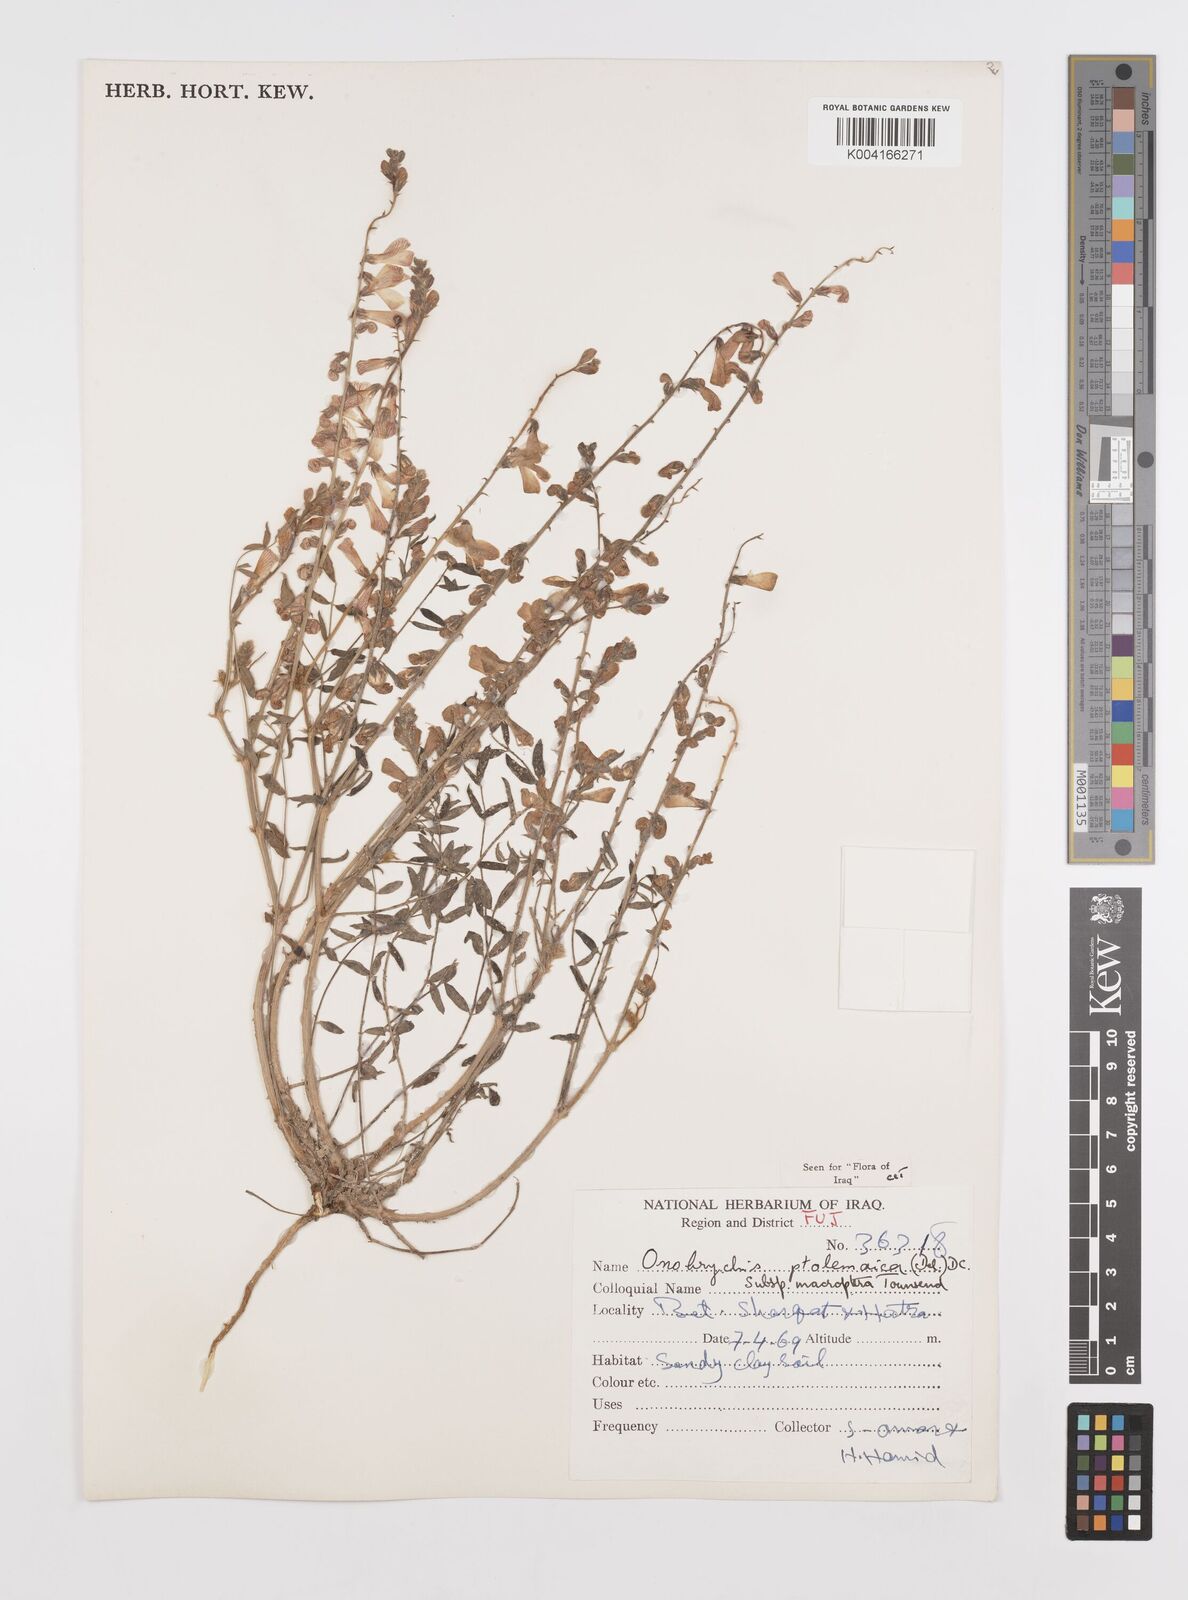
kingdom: Plantae
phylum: Tracheophyta
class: Magnoliopsida
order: Fabales
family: Fabaceae
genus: Onobrychis
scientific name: Onobrychis ptolemaica
